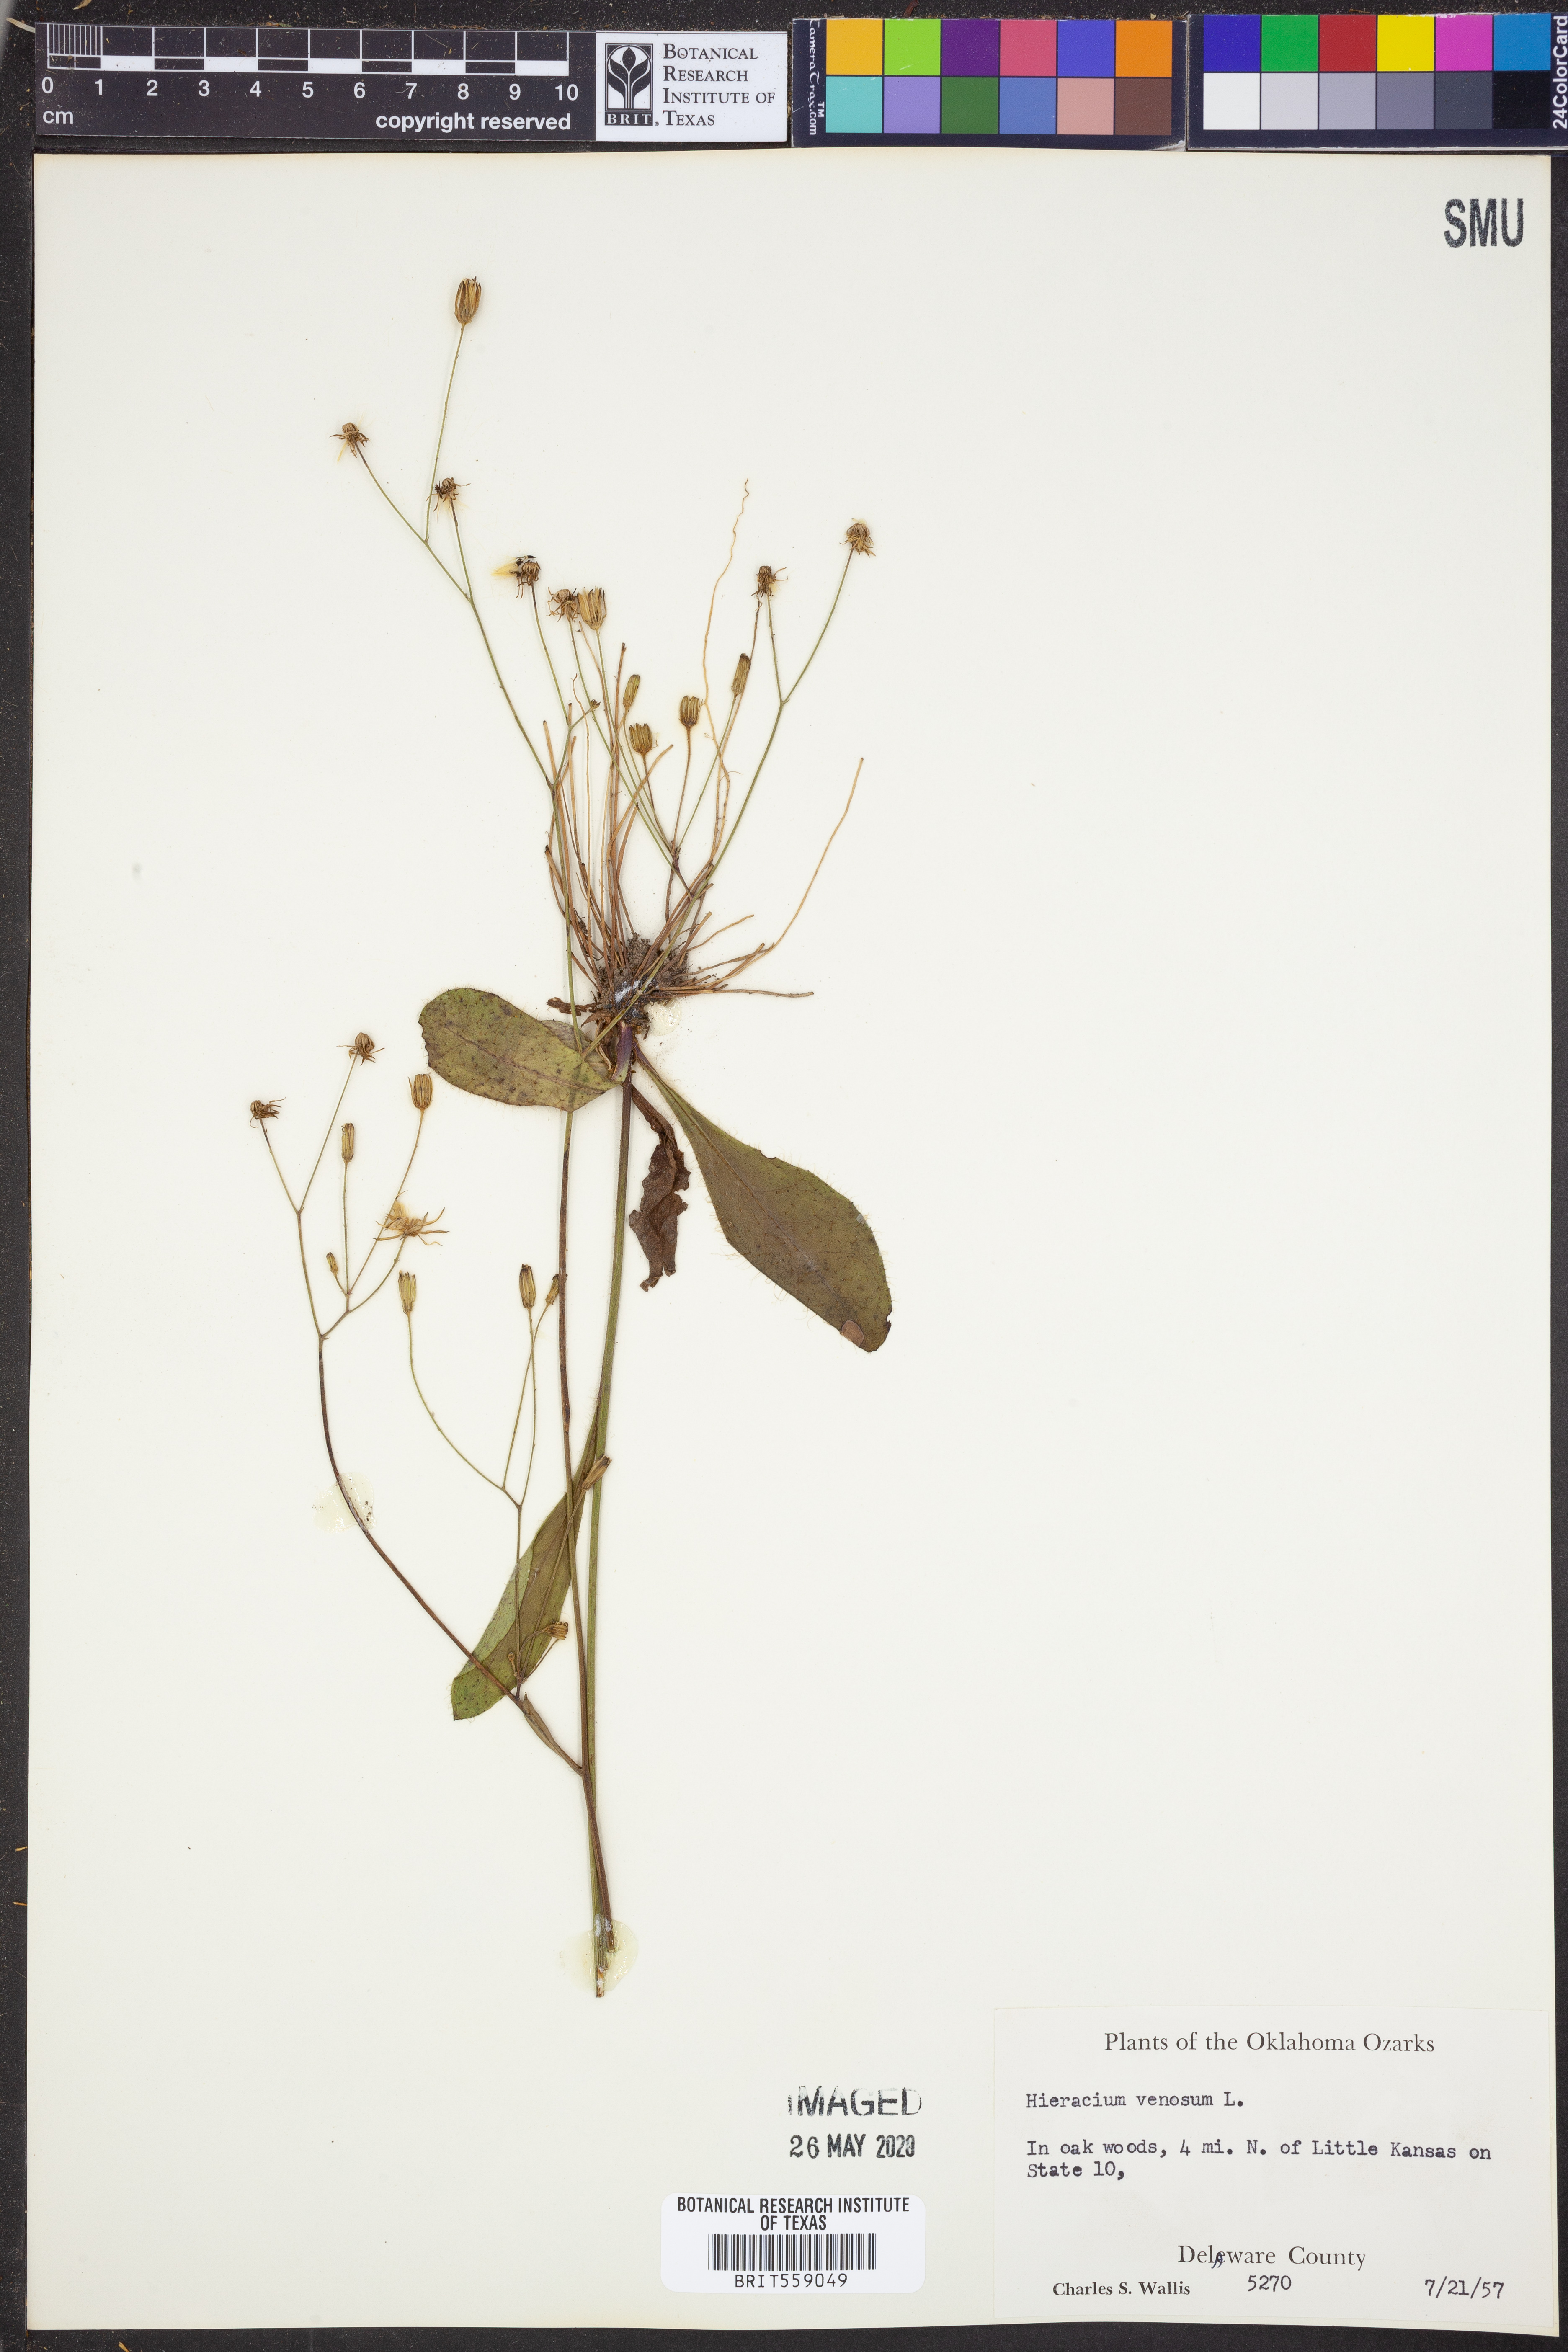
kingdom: Plantae
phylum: Tracheophyta
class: Magnoliopsida
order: Asterales
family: Asteraceae
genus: Hieracium
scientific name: Hieracium venosum
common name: Rattlesnake hawkweed
